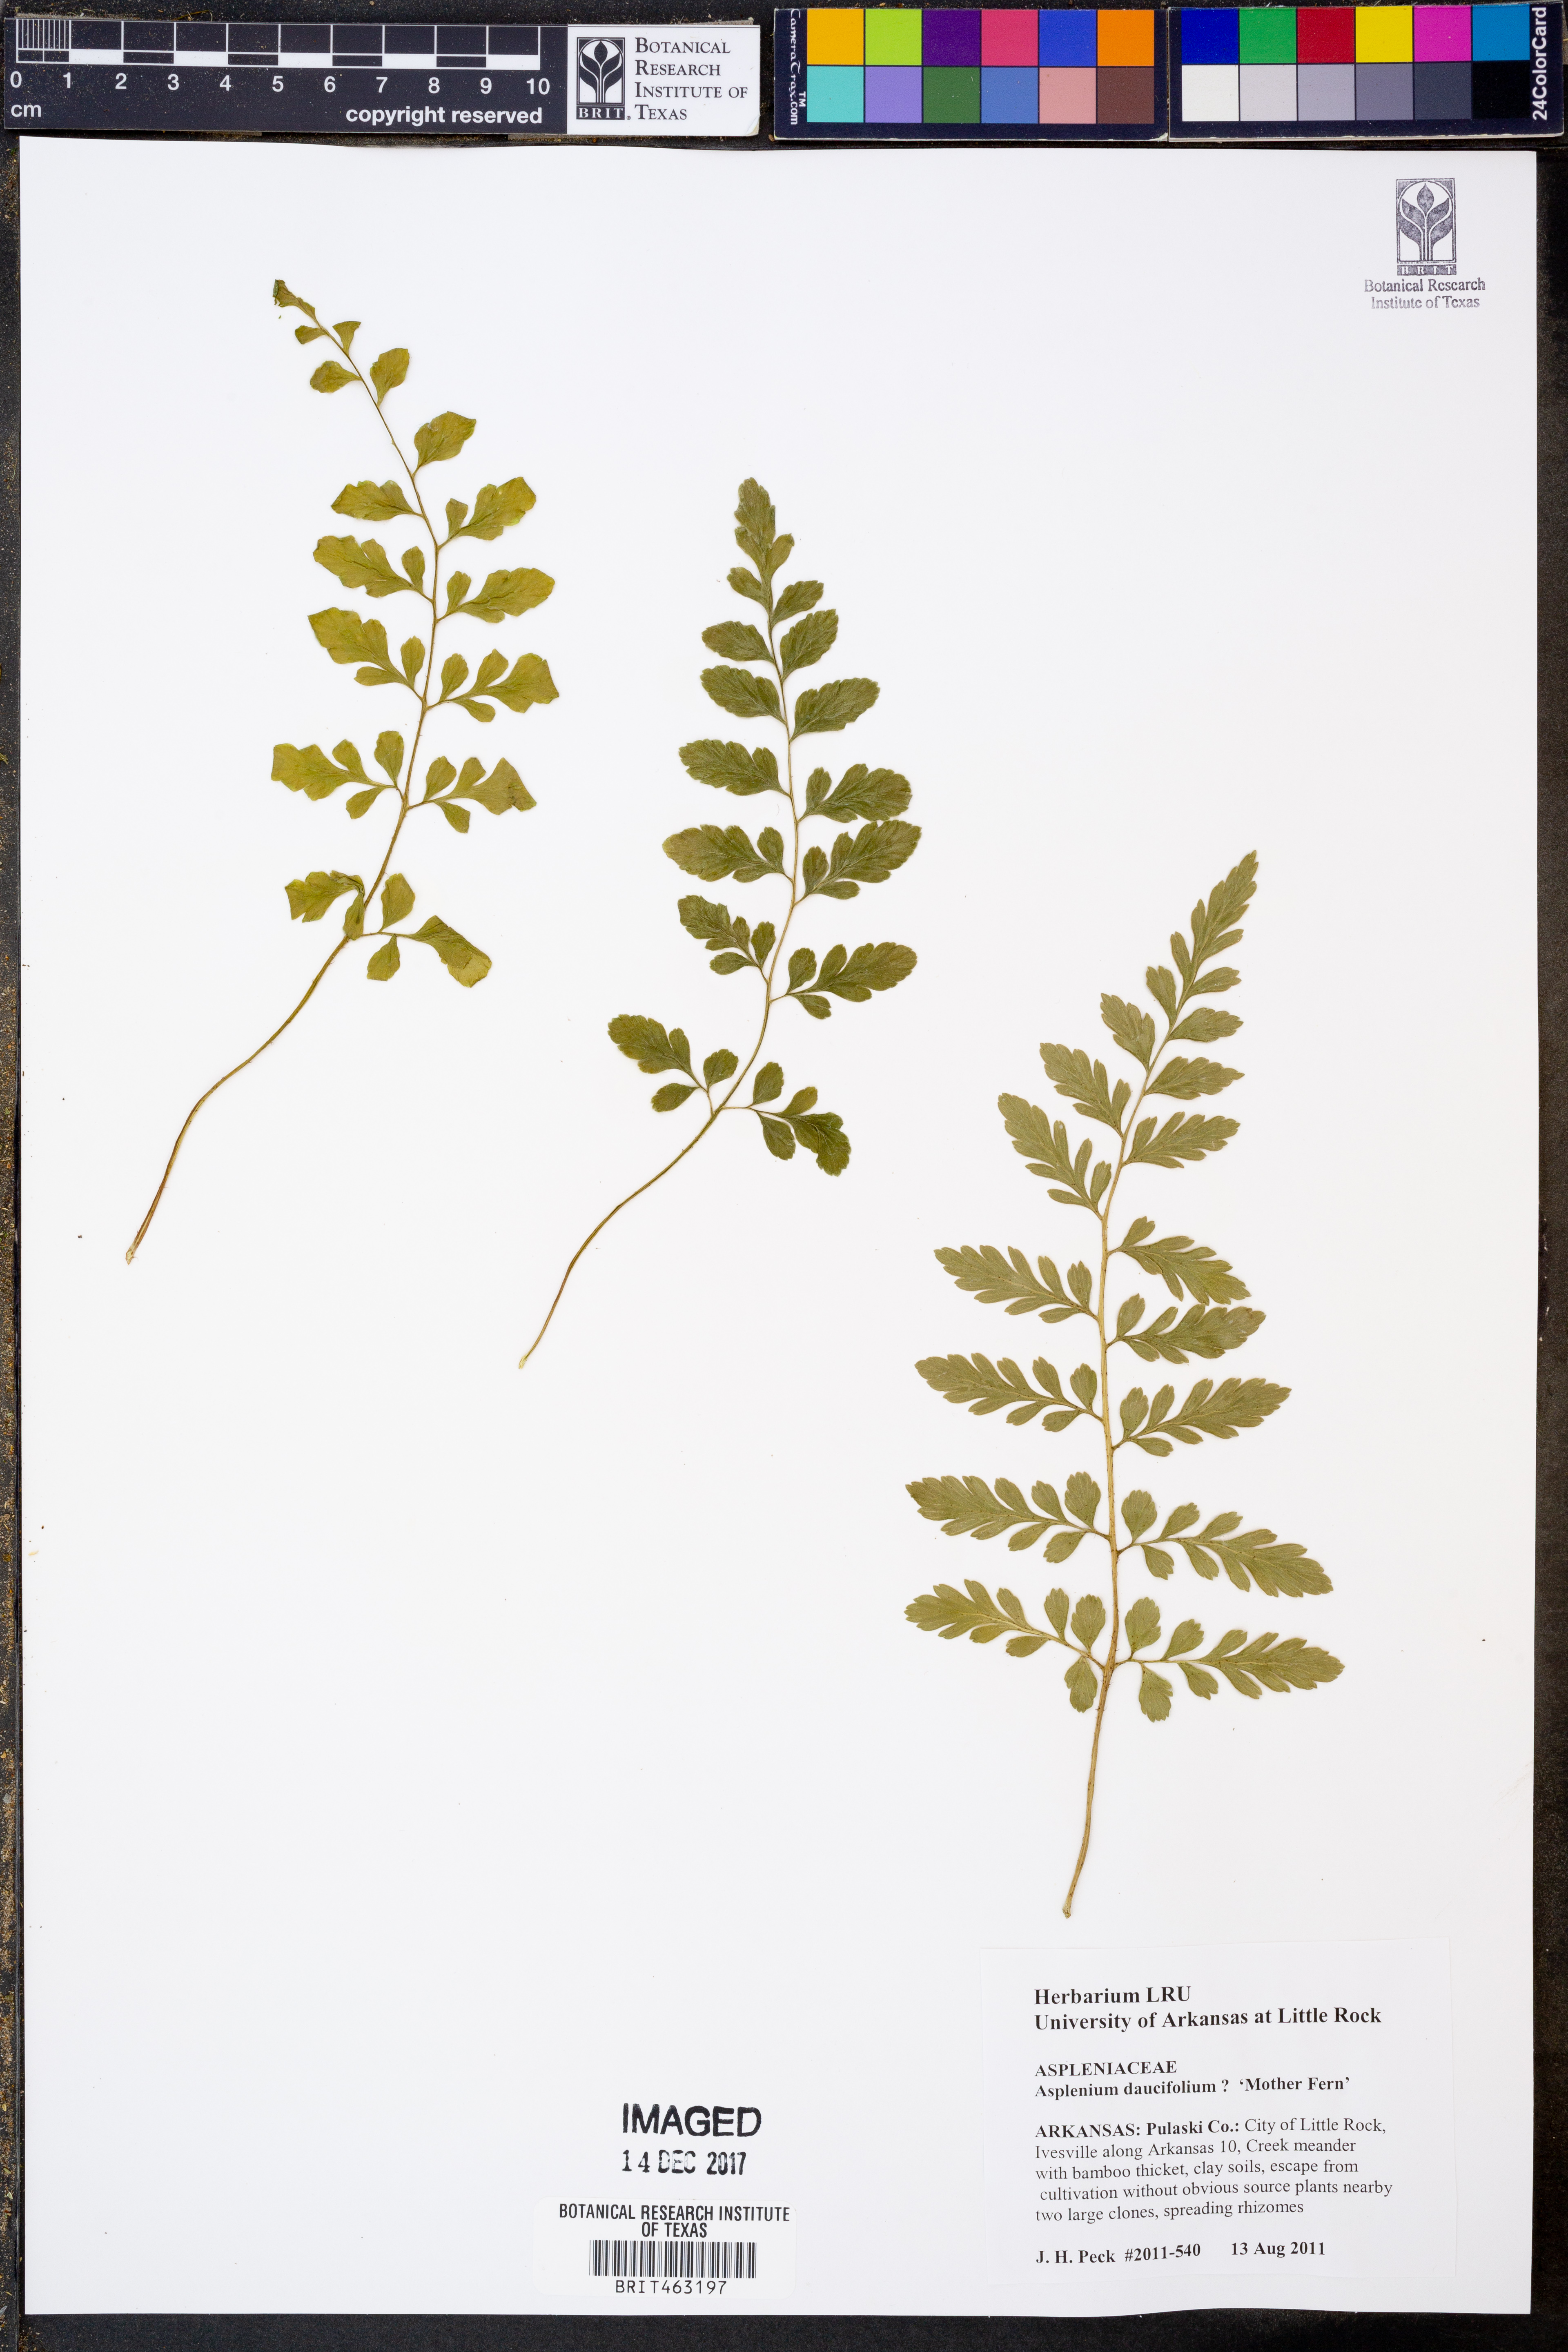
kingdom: Plantae
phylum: Tracheophyta
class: Polypodiopsida
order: Polypodiales
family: Aspleniaceae
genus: Asplenium
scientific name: Asplenium daucifolium
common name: Mauritius spleenwort
